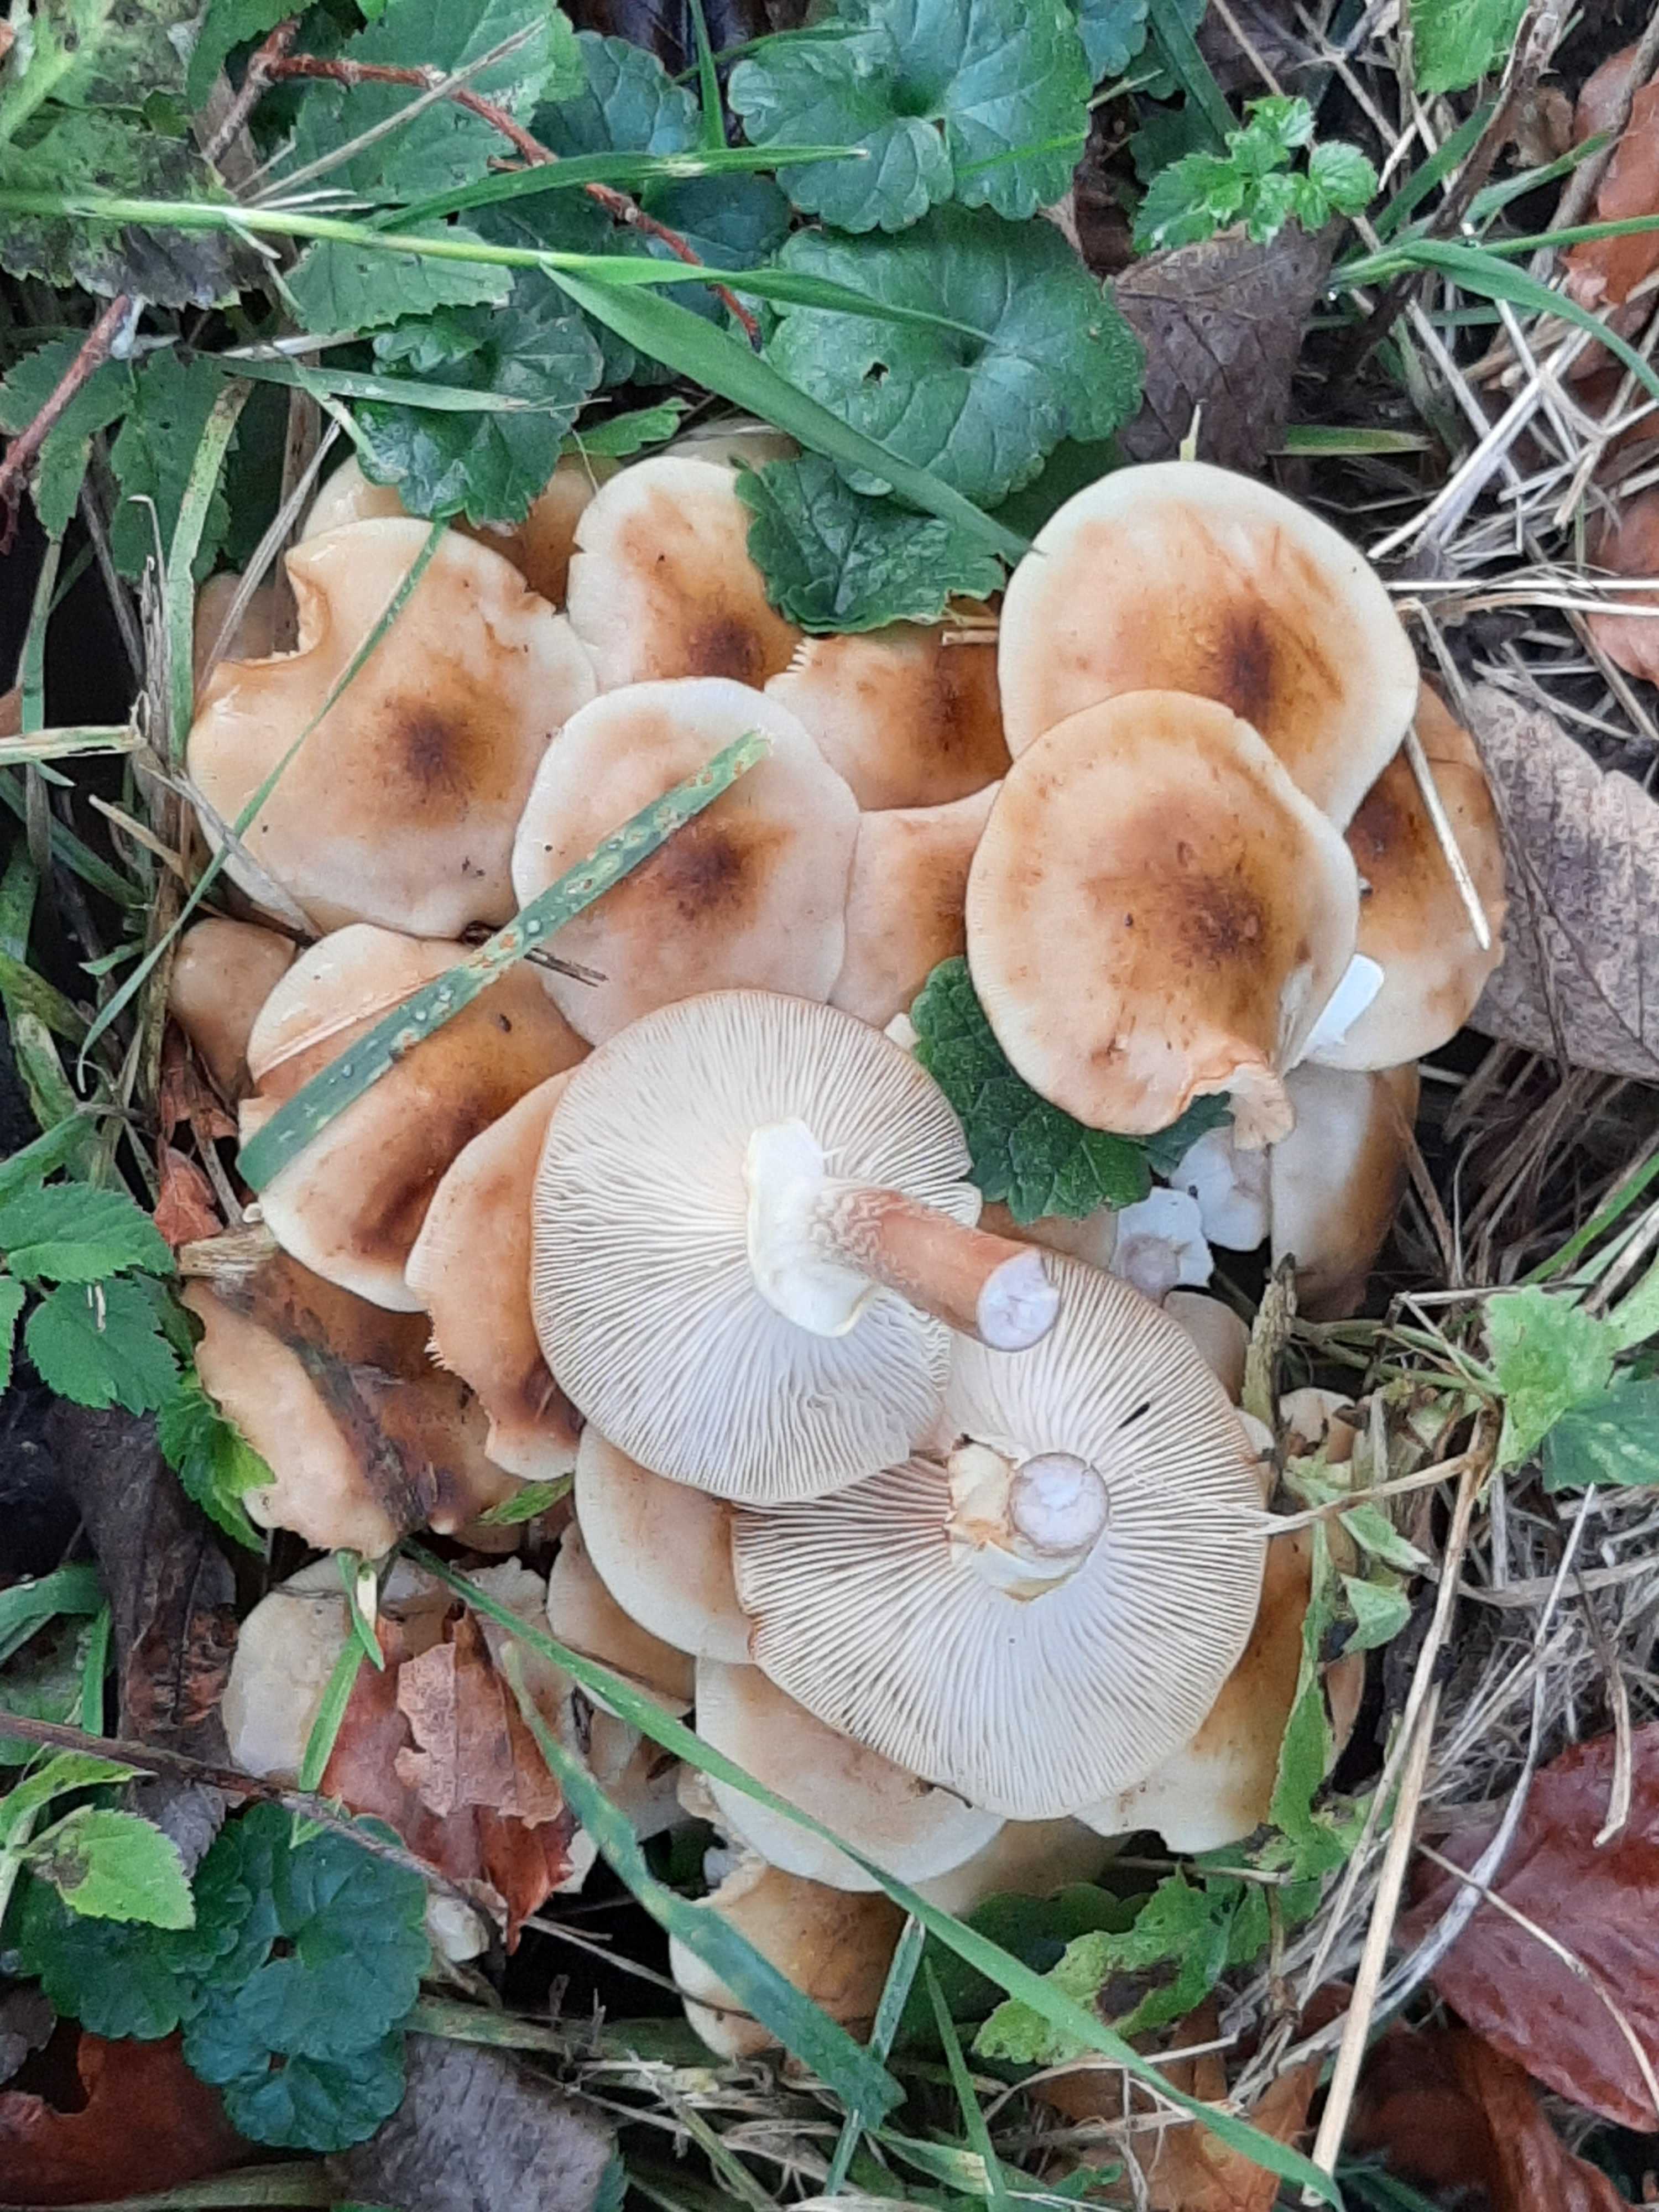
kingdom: Fungi
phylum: Basidiomycota
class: Agaricomycetes
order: Agaricales
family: Physalacriaceae
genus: Armillaria
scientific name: Armillaria mellea
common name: ægte honningsvamp
